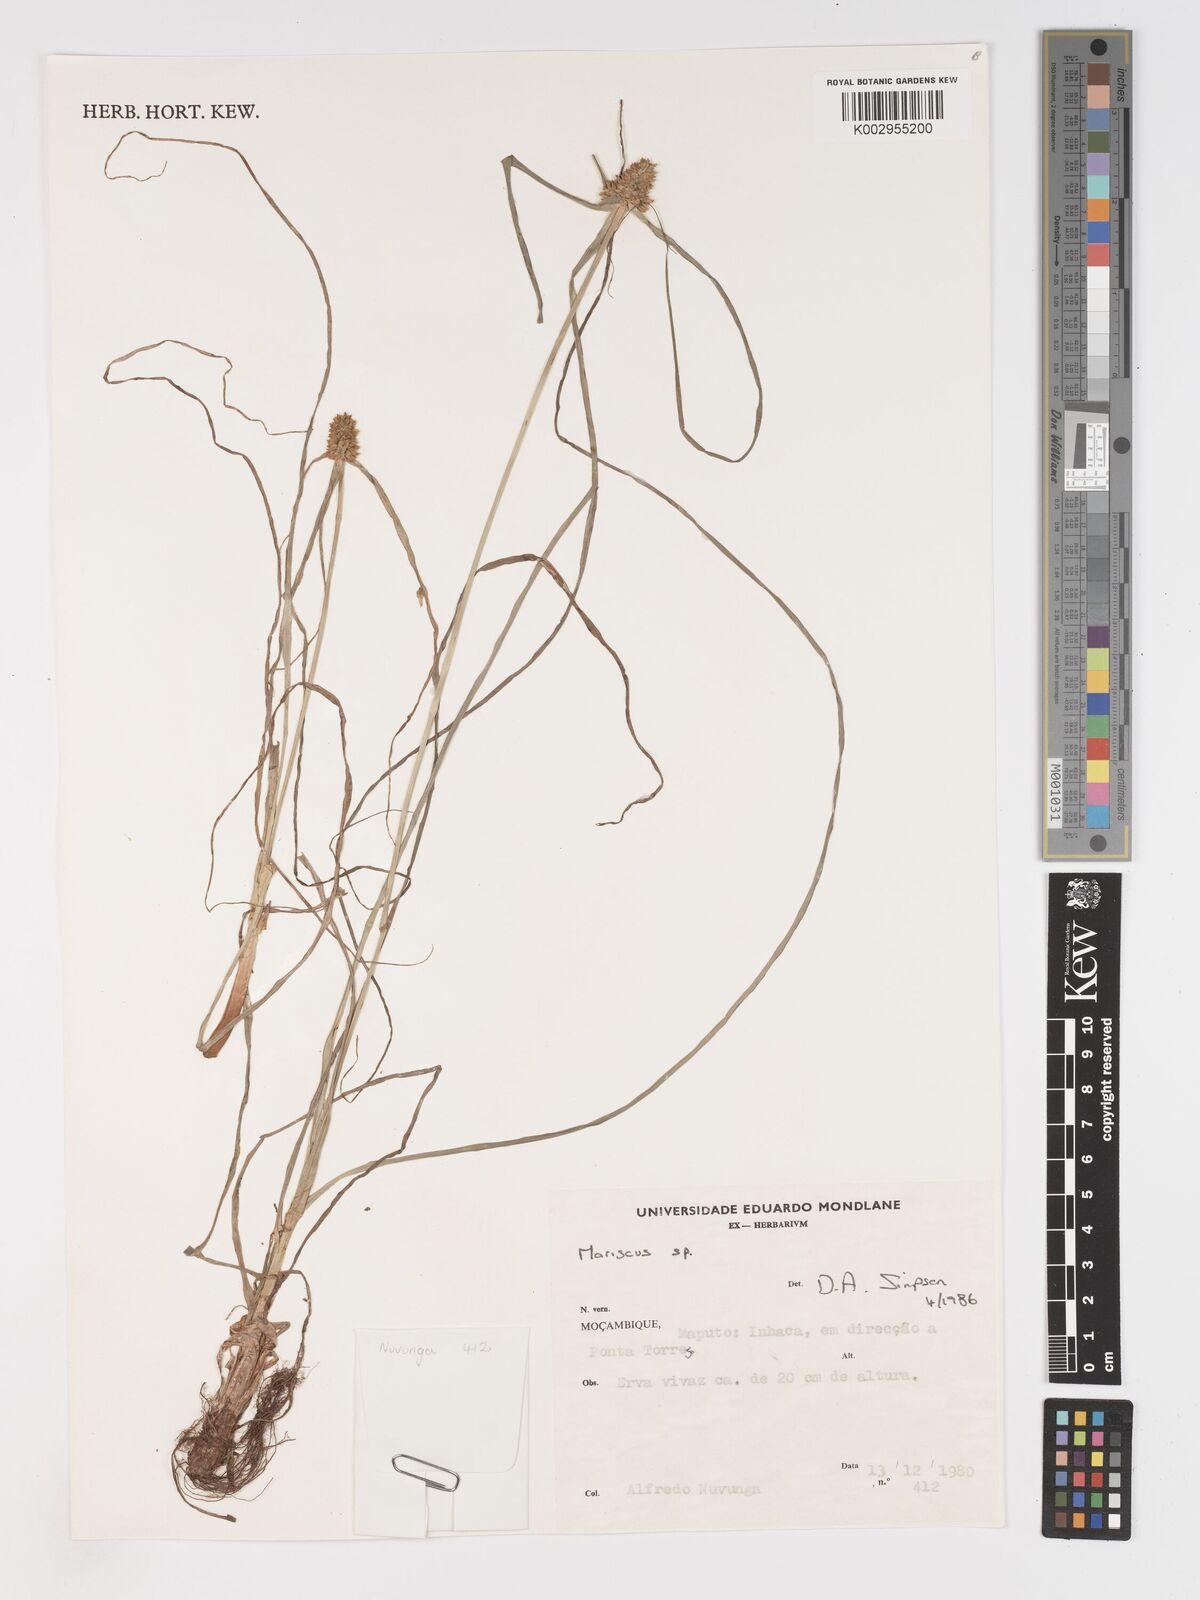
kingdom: Plantae
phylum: Tracheophyta
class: Liliopsida
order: Poales
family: Cyperaceae
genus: Cyperus
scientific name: Cyperus
